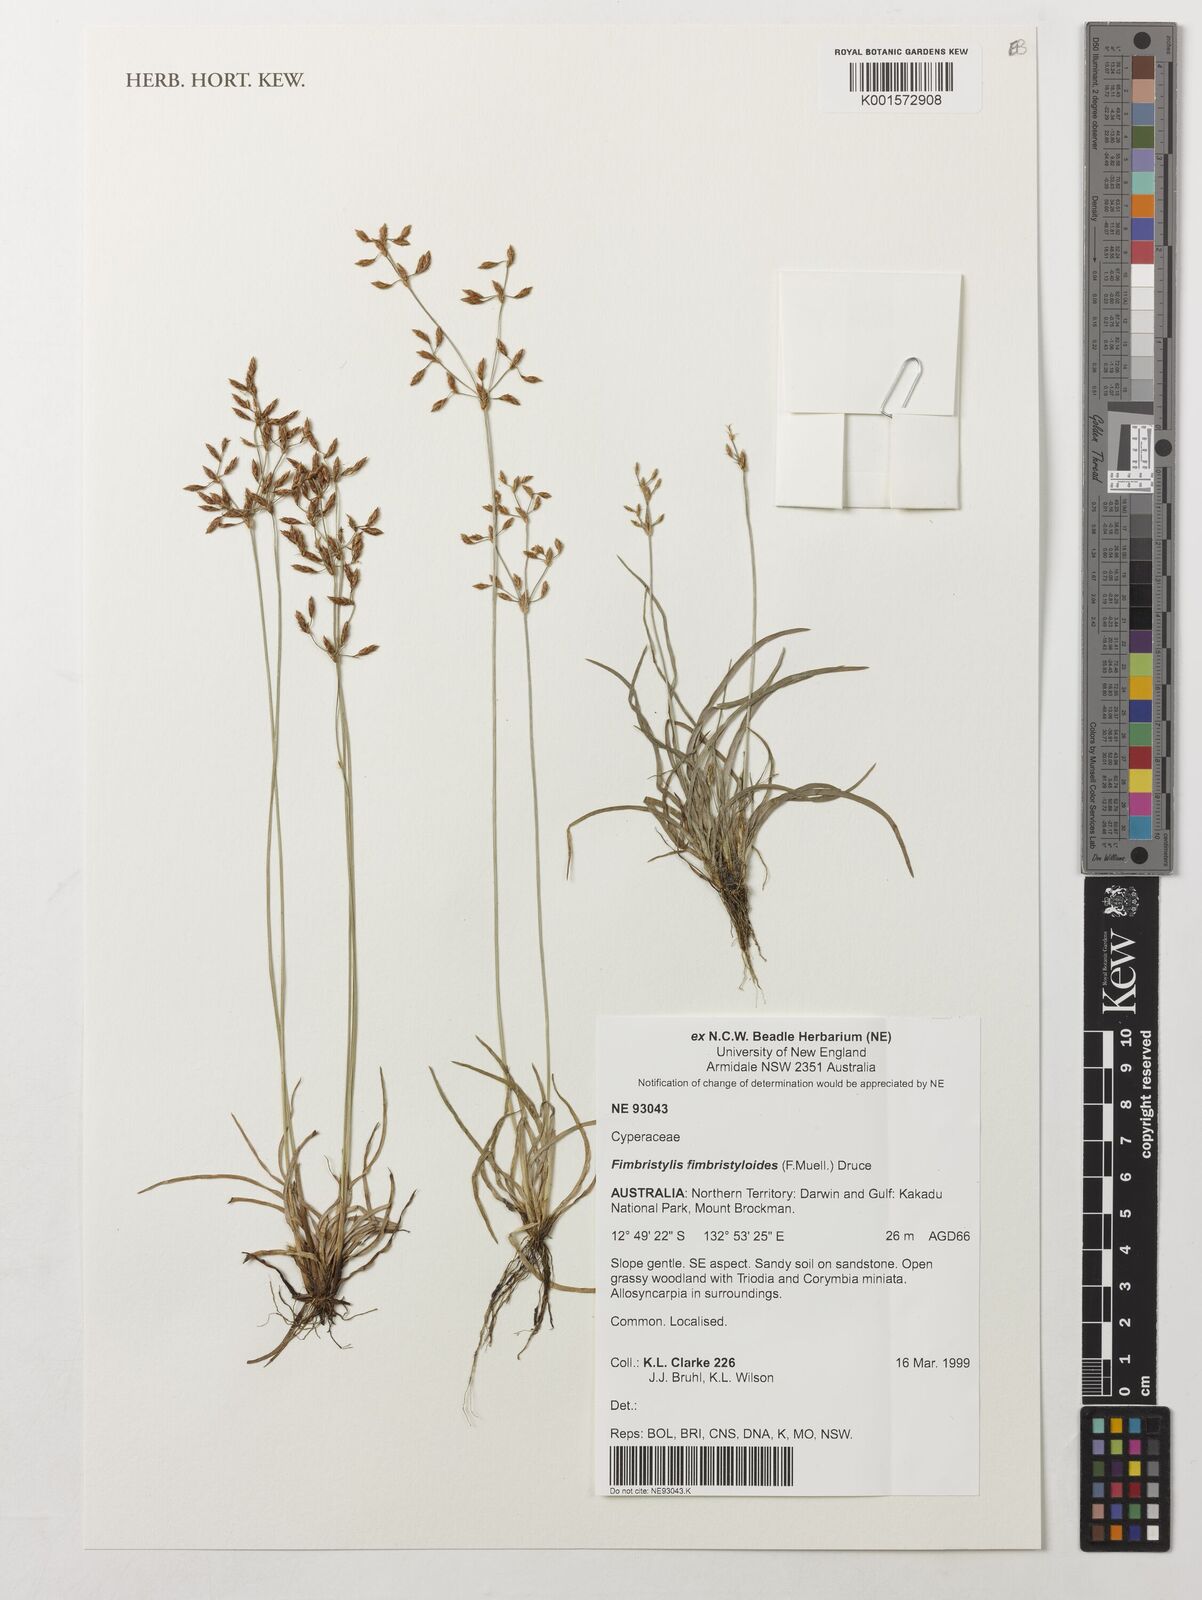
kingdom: Plantae
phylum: Tracheophyta
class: Liliopsida
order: Poales
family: Cyperaceae
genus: Fimbristylis
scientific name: Fimbristylis fimbristyloides
